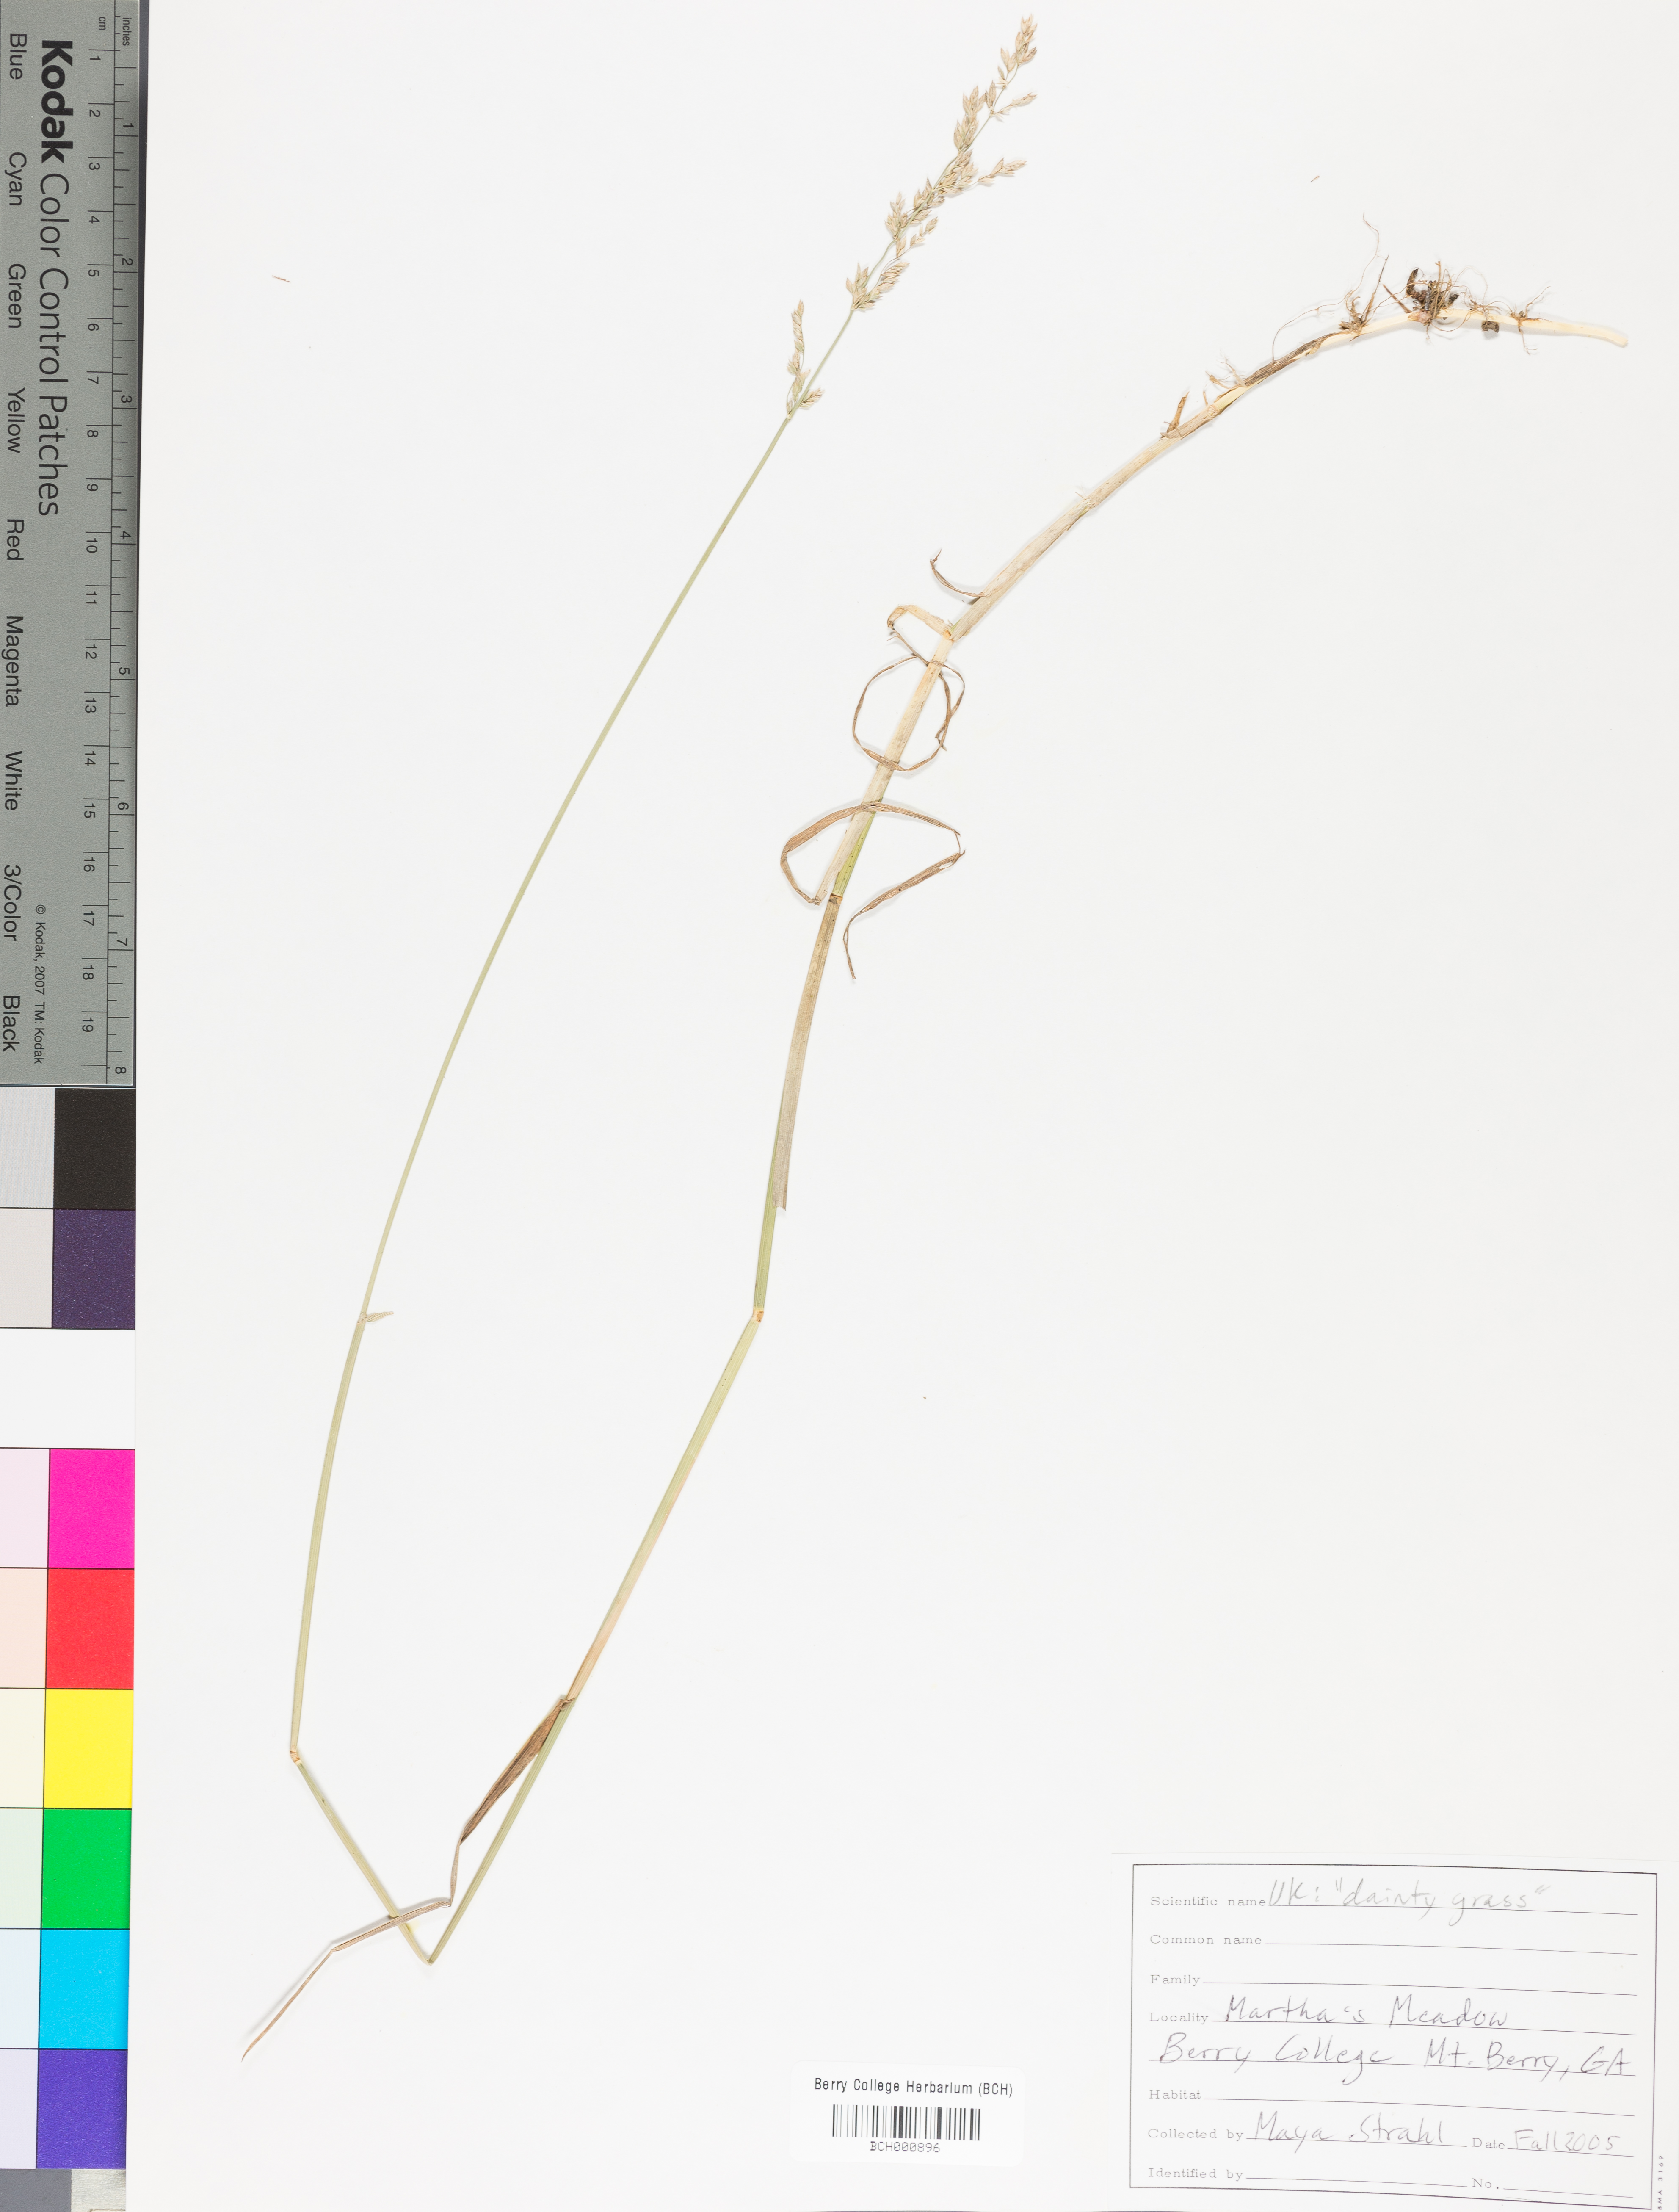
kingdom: Plantae
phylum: Tracheophyta
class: Magnoliopsida
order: Lamiales
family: Acanthaceae
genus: Adhatoda
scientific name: Adhatoda
